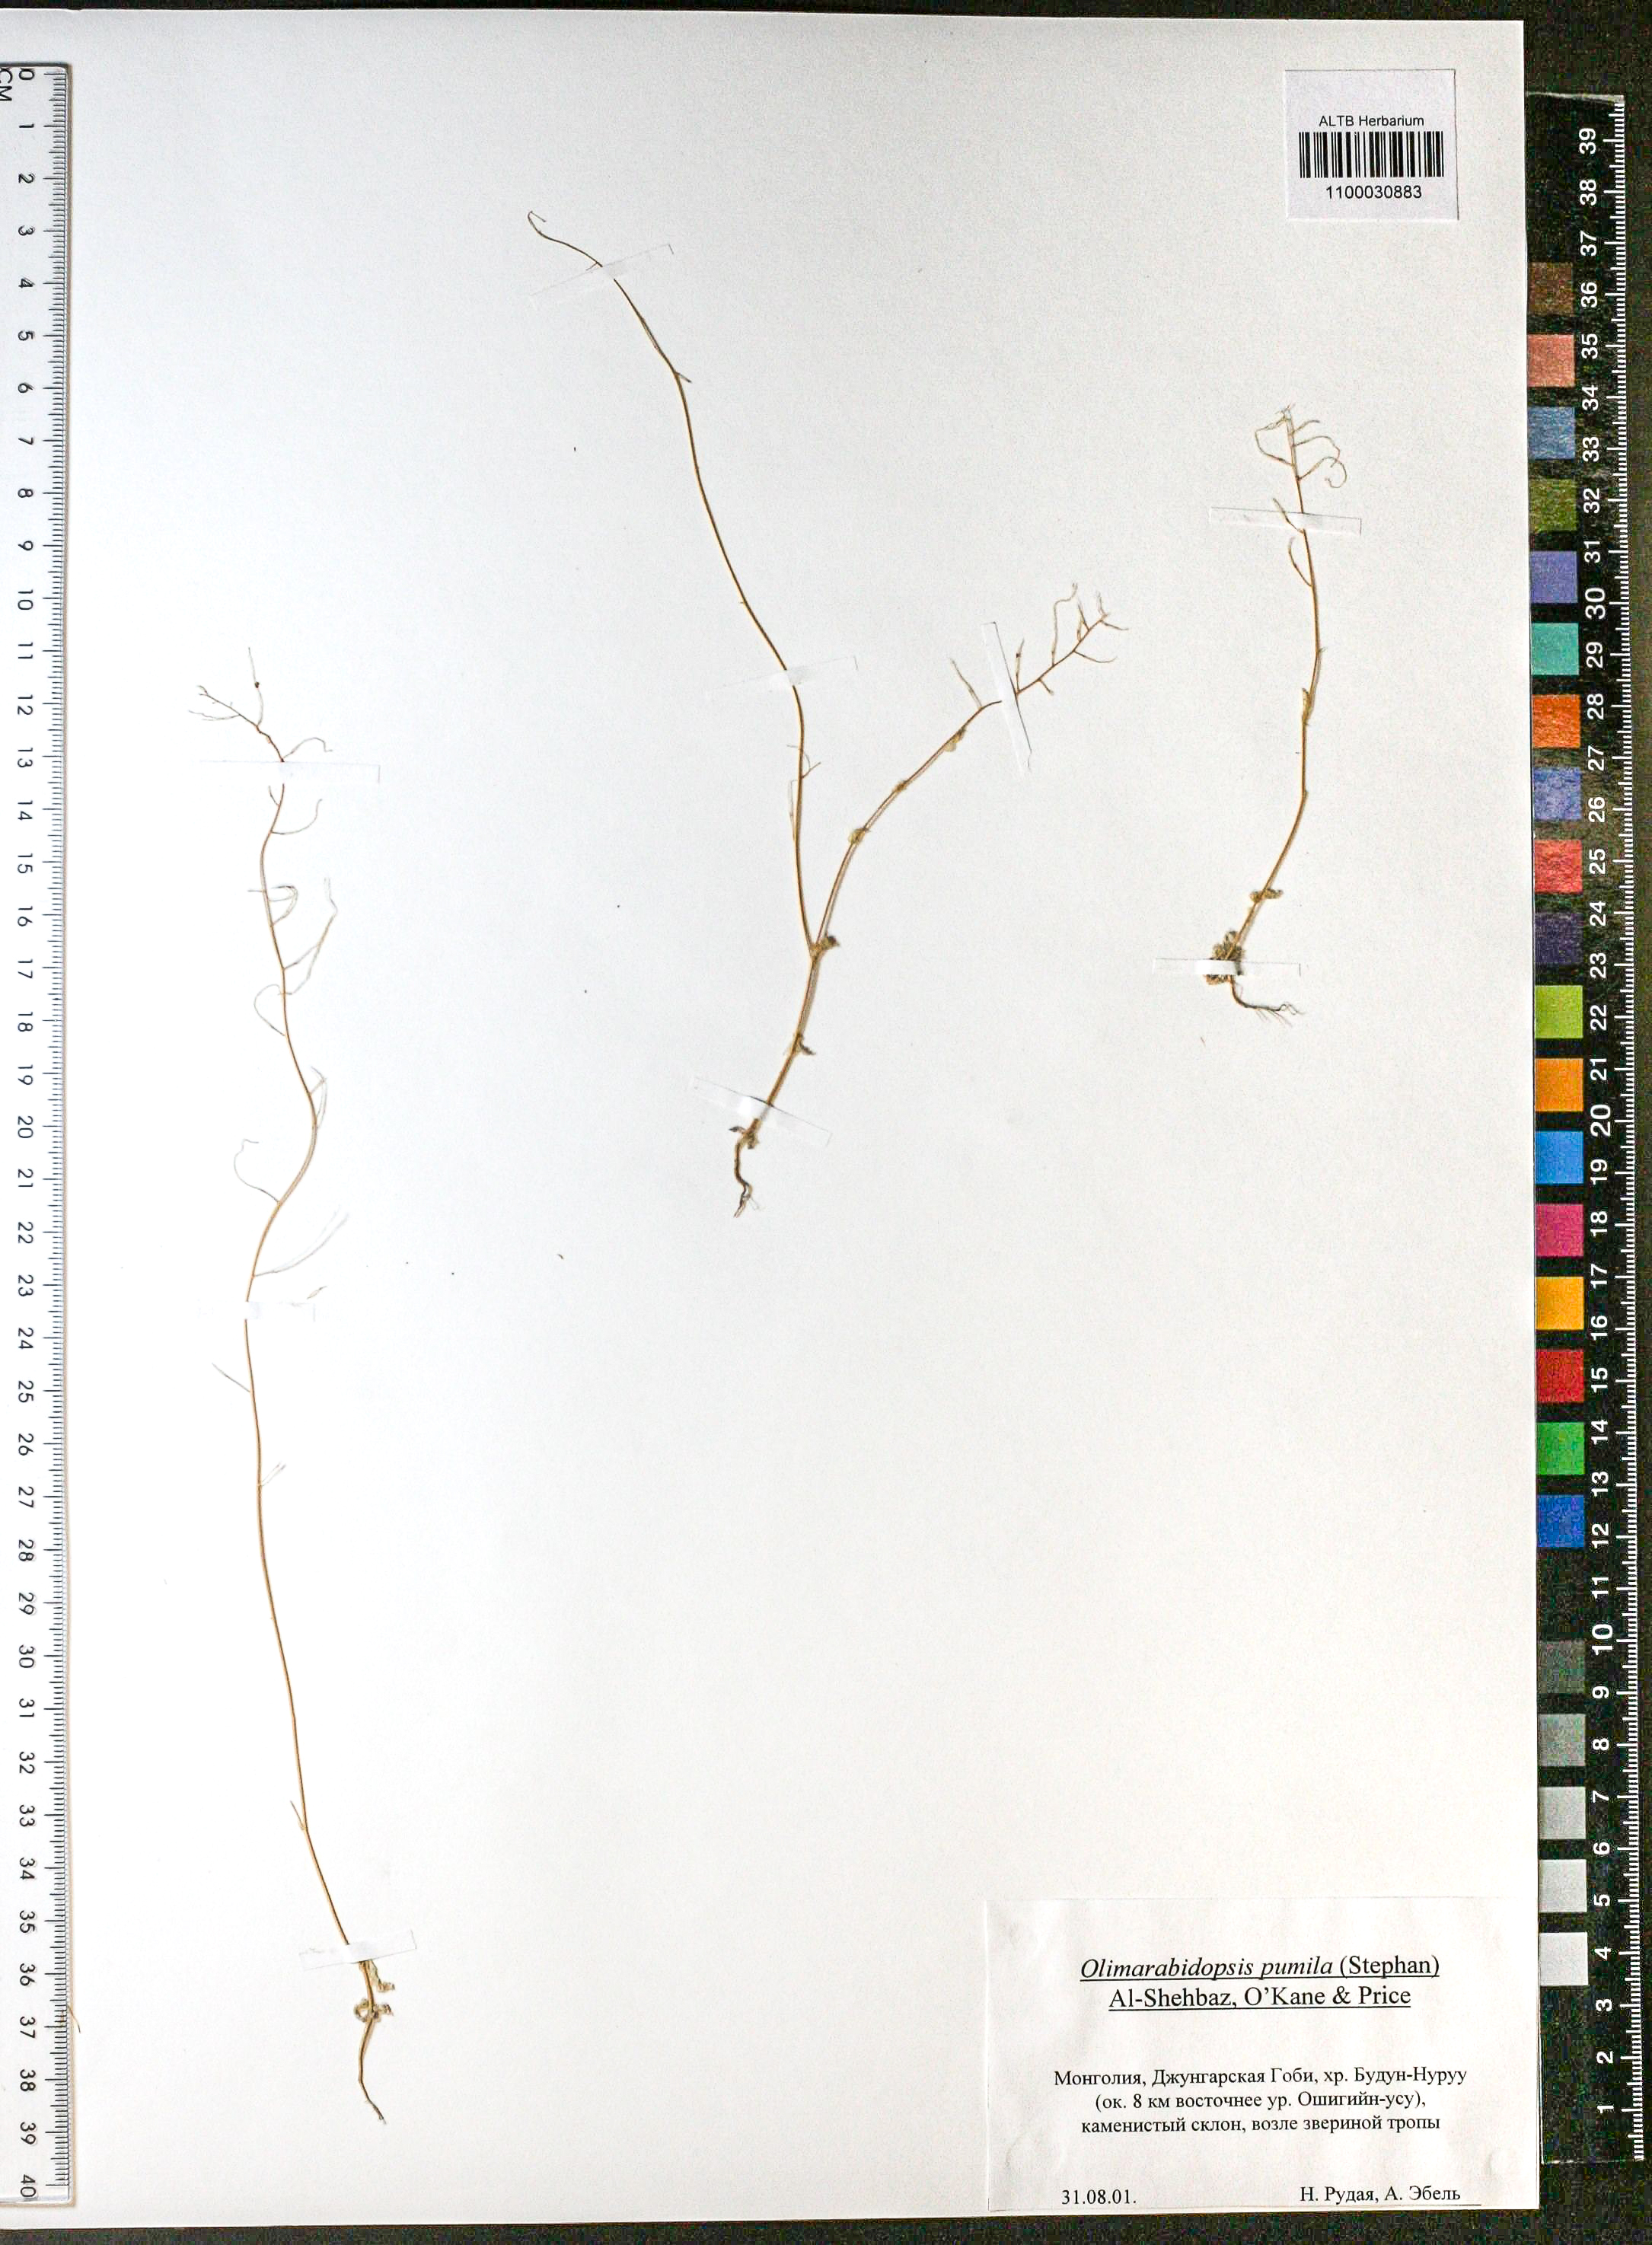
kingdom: Plantae
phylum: Tracheophyta
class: Magnoliopsida
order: Brassicales
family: Brassicaceae
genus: Sisymbrium
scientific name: Sisymbrium pumilum
